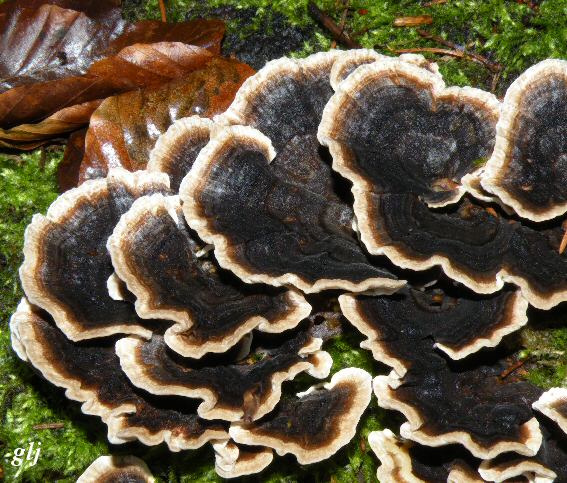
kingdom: Fungi
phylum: Basidiomycota
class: Agaricomycetes
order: Polyporales
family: Polyporaceae
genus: Trametes
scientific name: Trametes versicolor
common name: broget læderporesvamp
